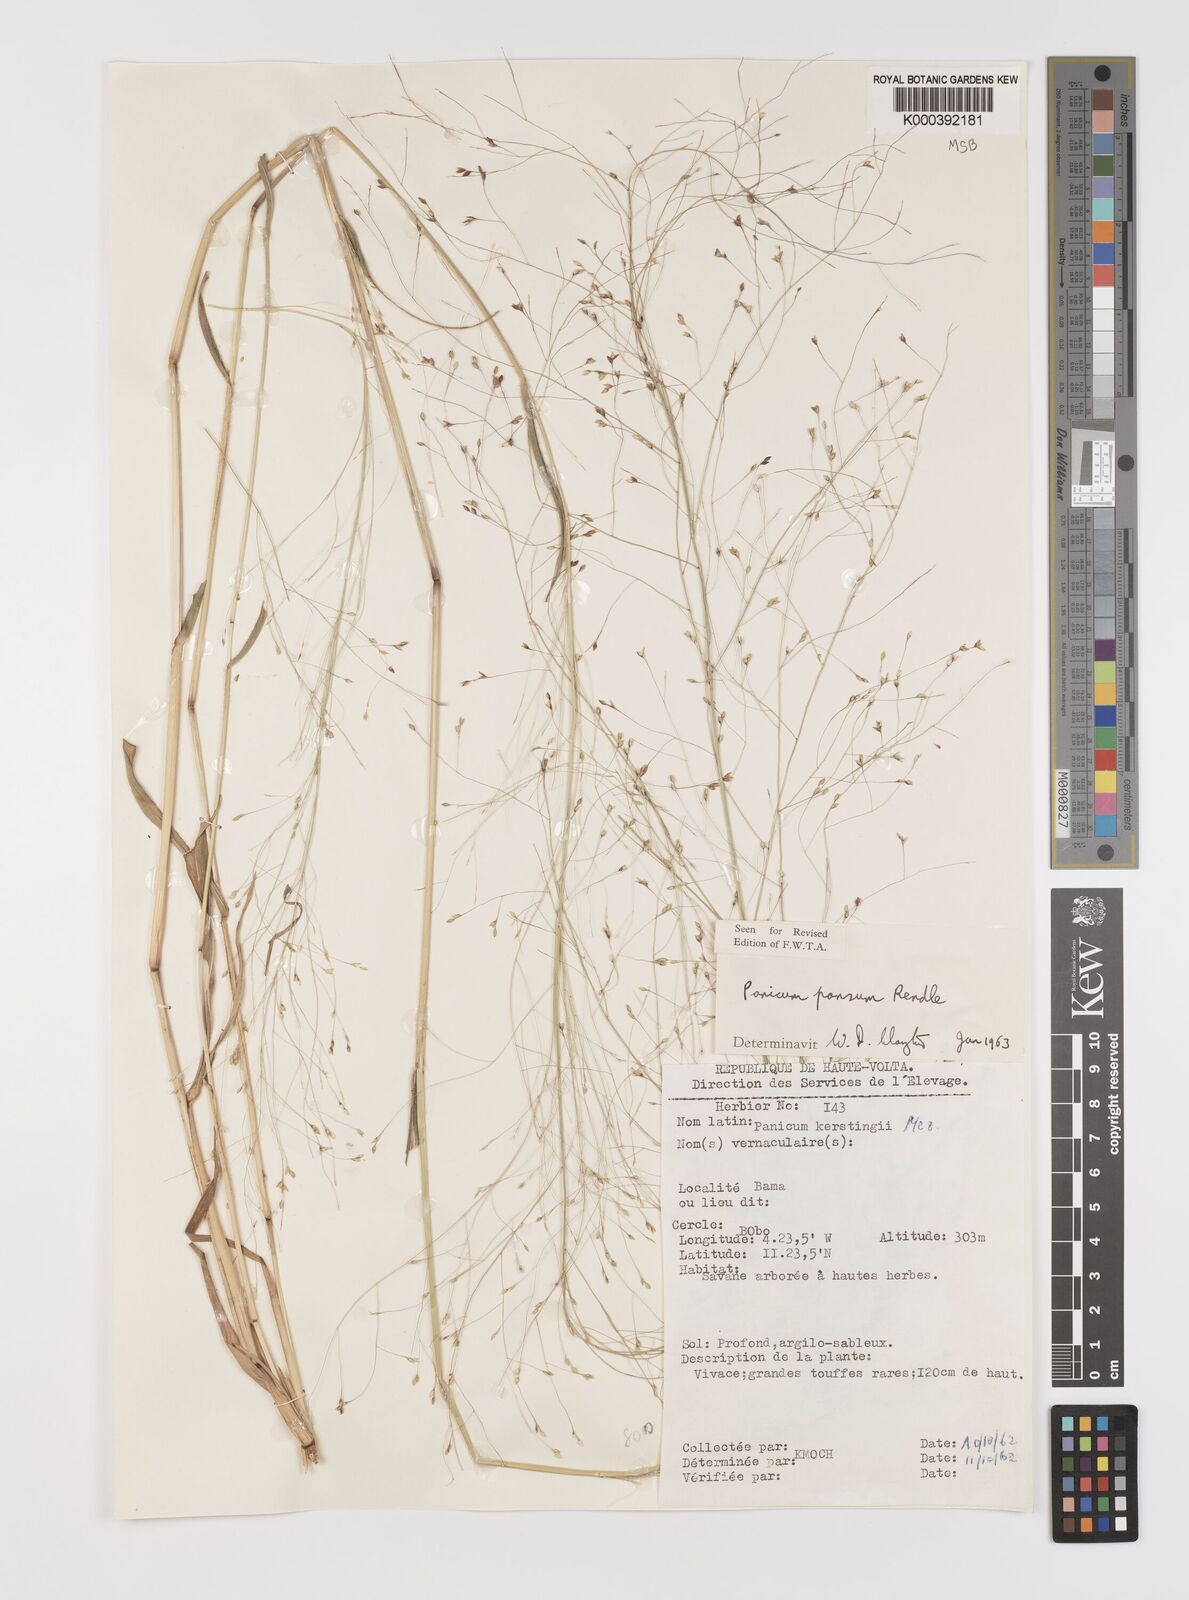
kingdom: Plantae
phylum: Tracheophyta
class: Liliopsida
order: Poales
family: Poaceae
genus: Panicum
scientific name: Panicum pansum
